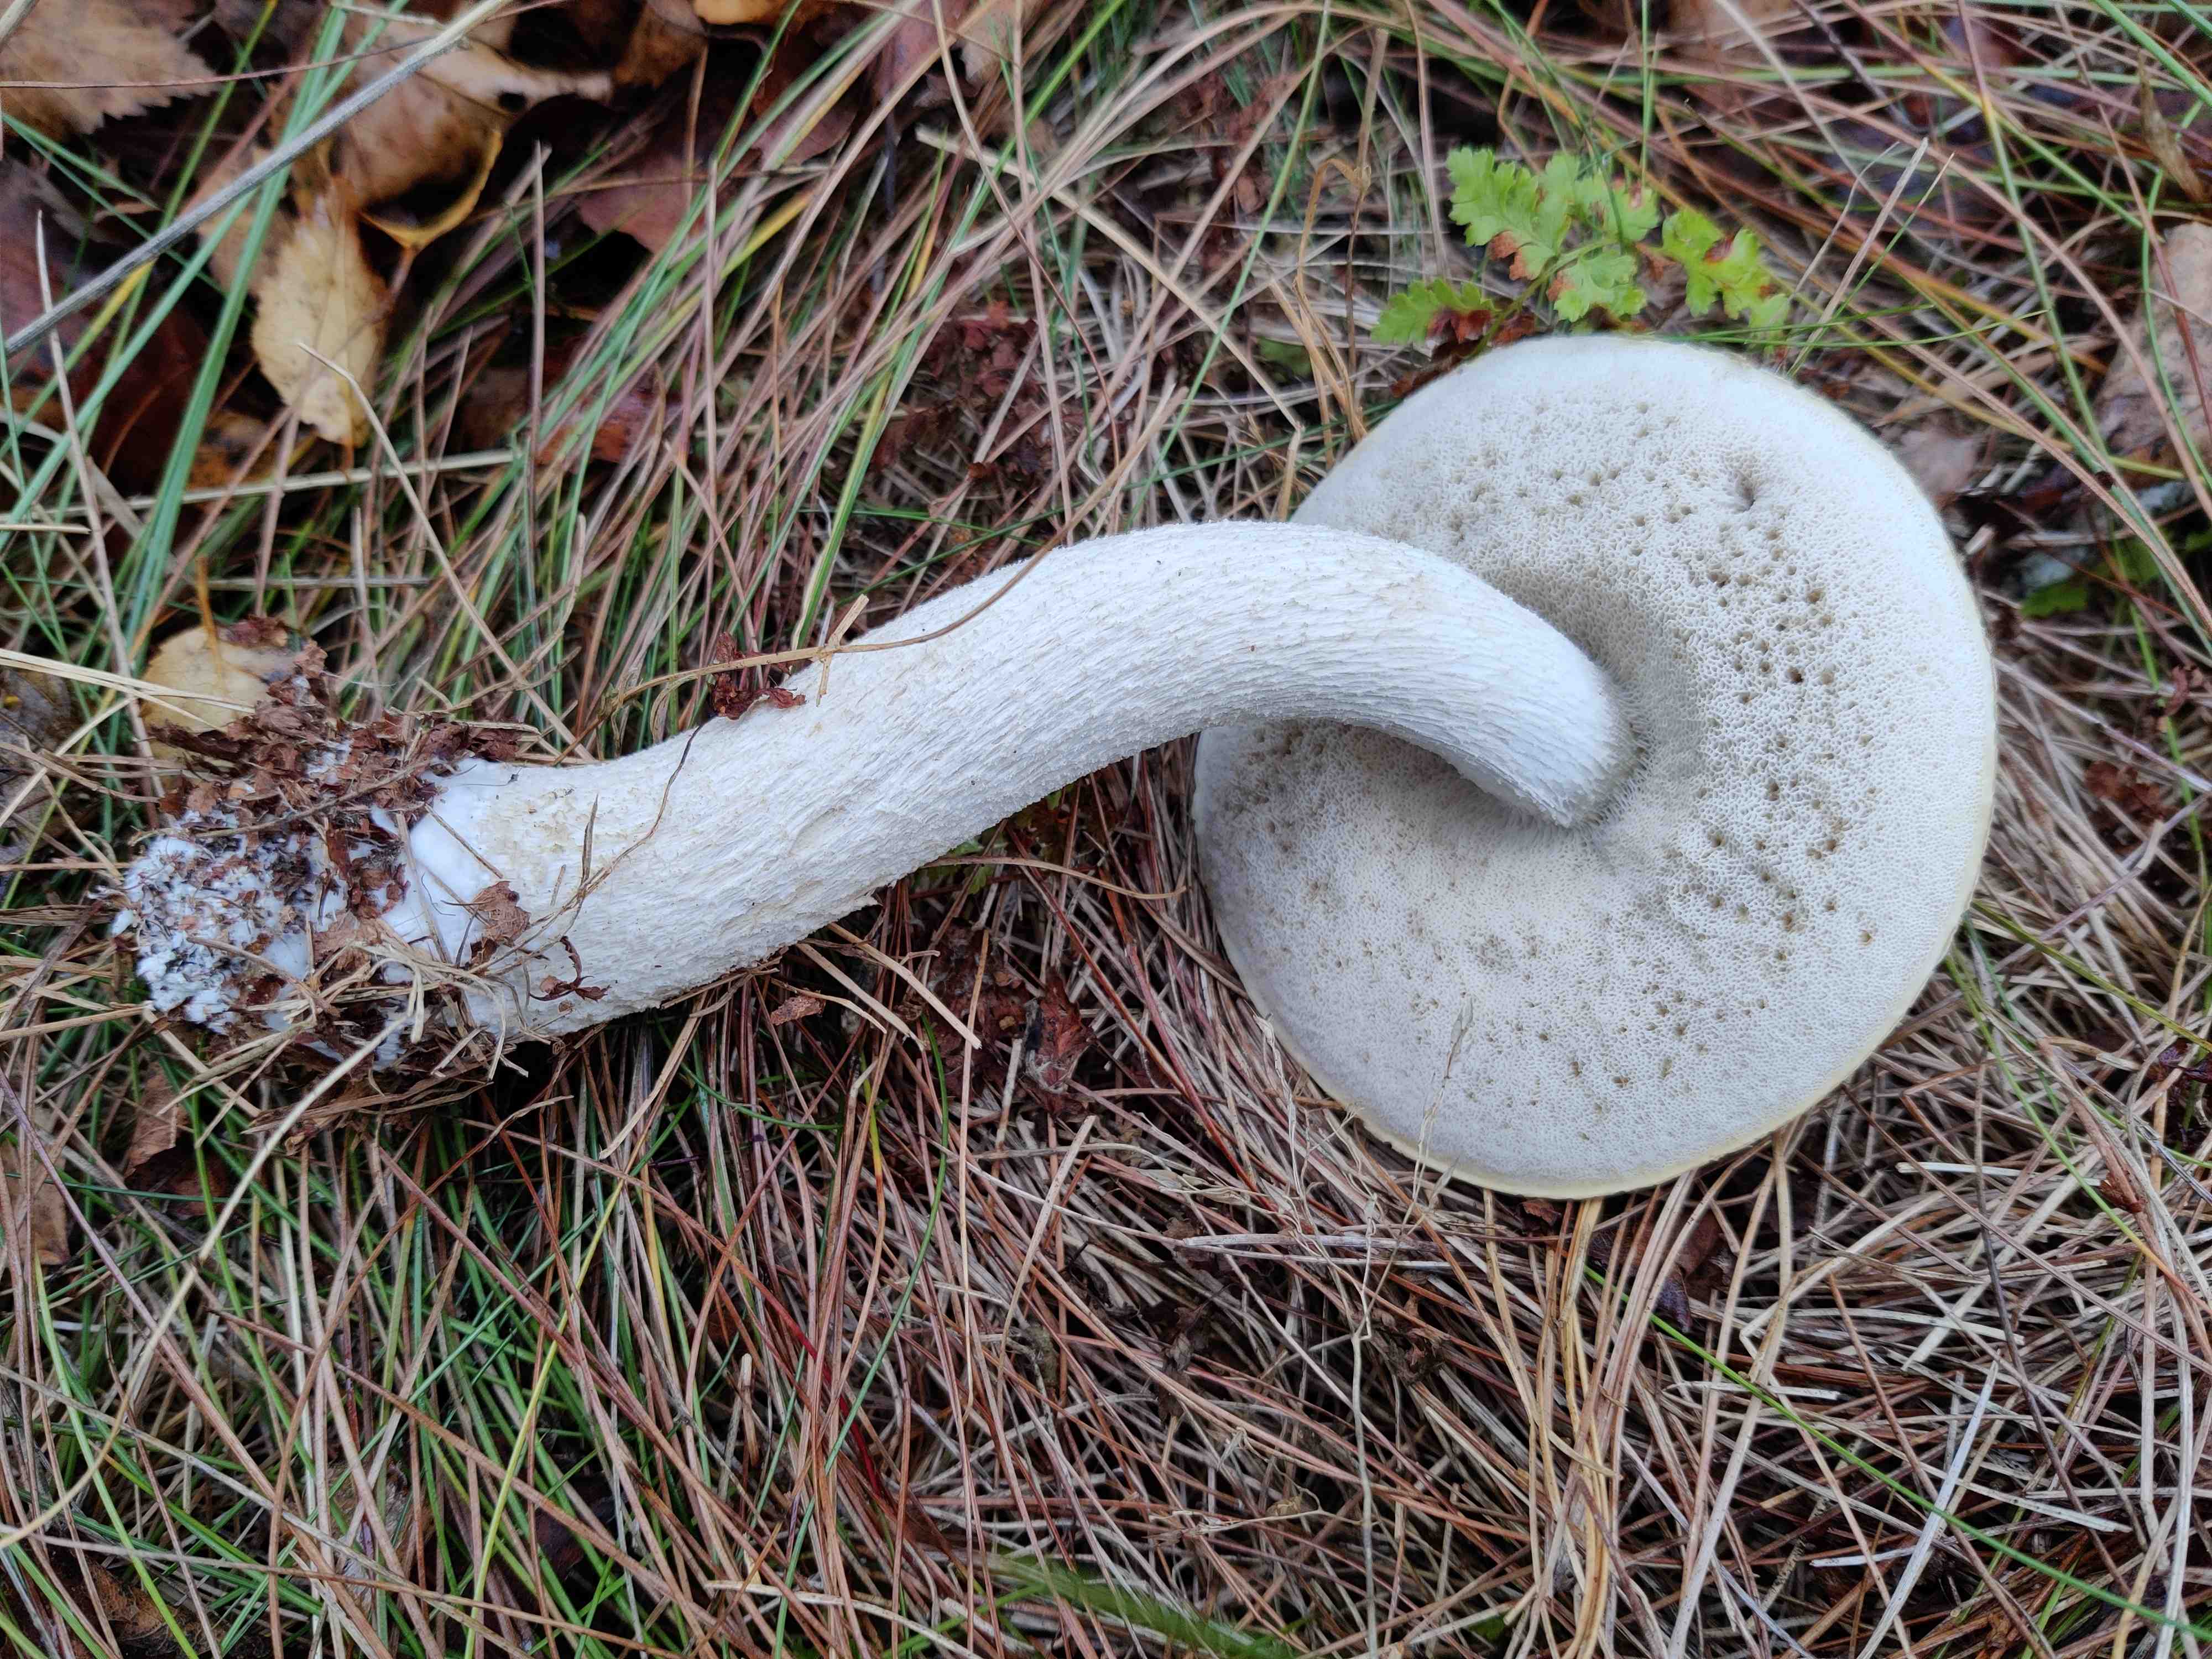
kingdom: Fungi
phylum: Basidiomycota
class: Agaricomycetes
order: Boletales
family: Boletaceae
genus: Leccinum
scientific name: Leccinum scabrum
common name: hvid skælrørhat
